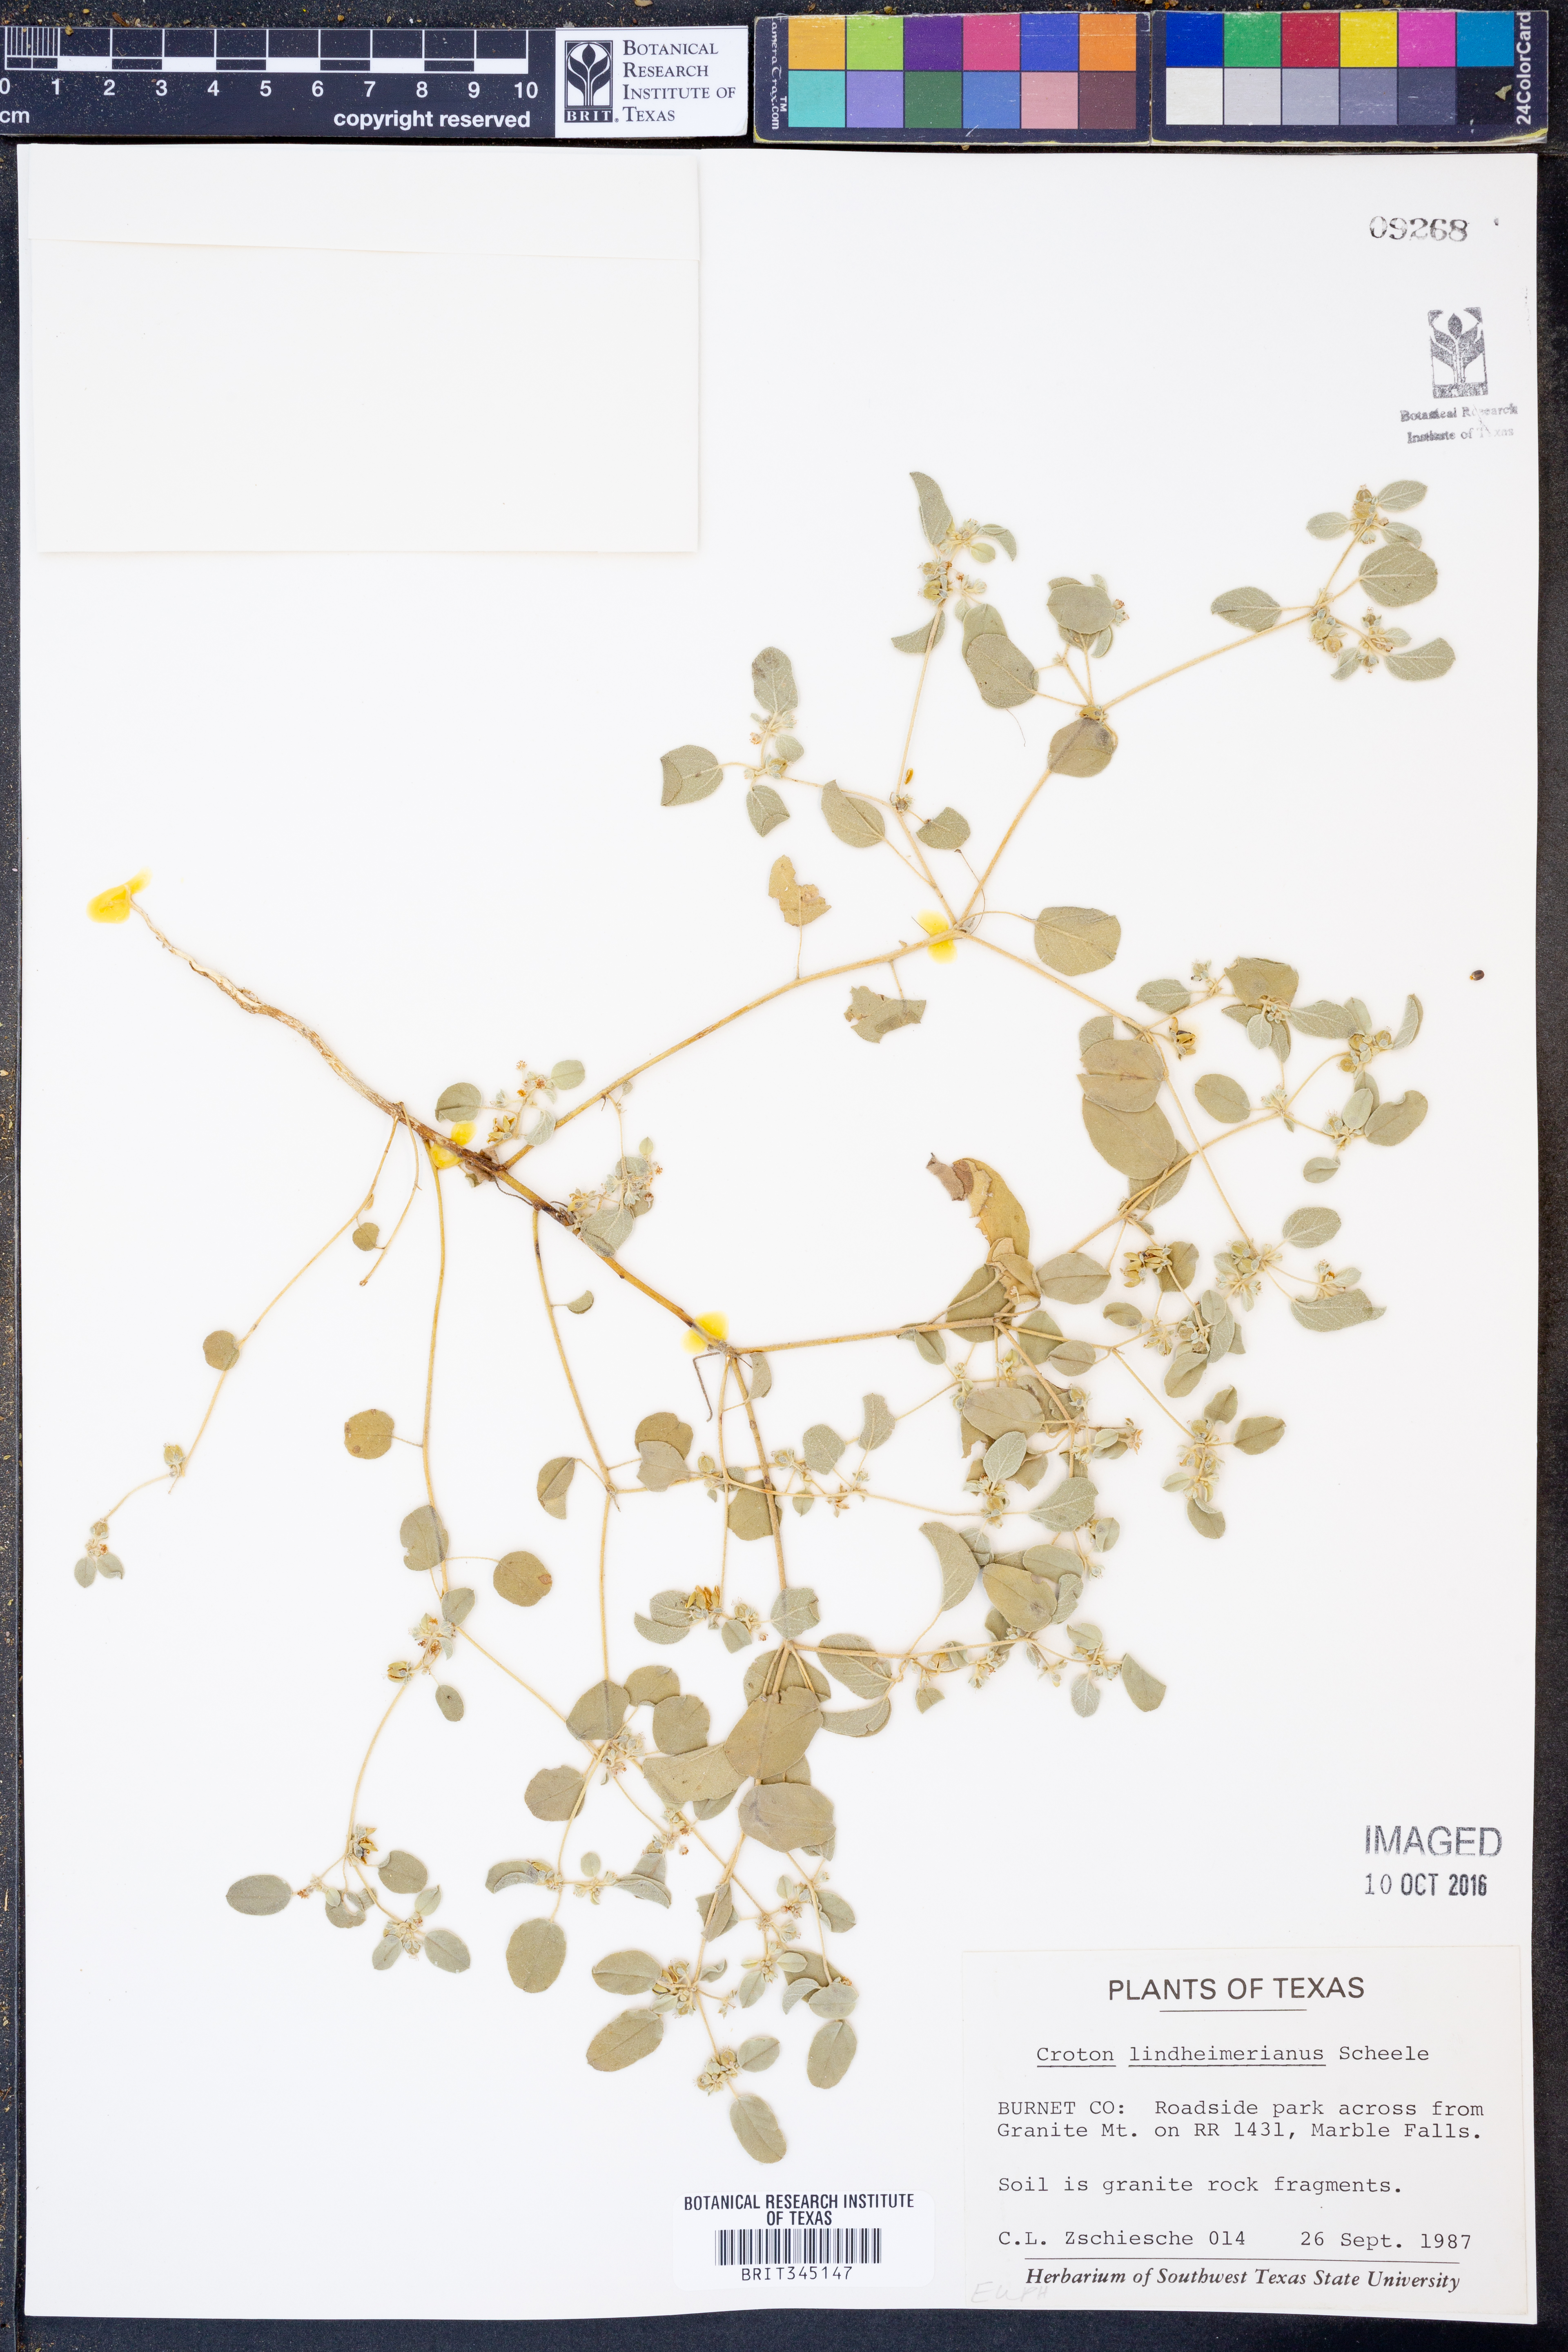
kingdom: Plantae
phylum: Tracheophyta
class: Magnoliopsida
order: Malpighiales
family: Euphorbiaceae
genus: Croton
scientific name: Croton lindheimerianus
